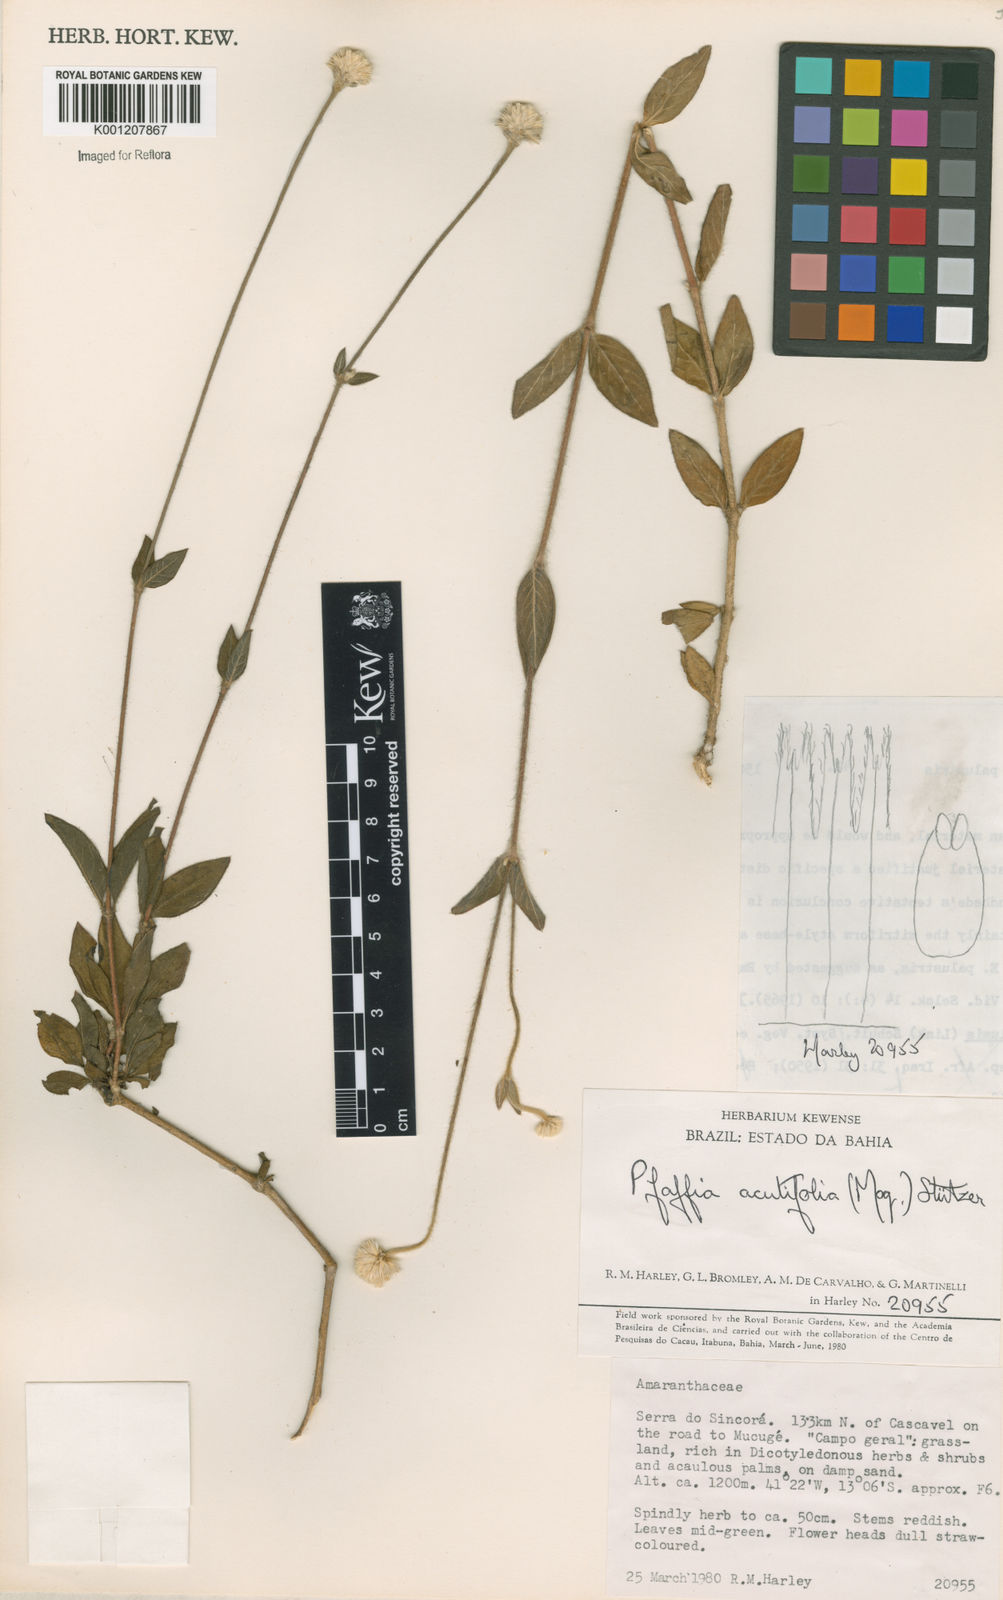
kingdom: Plantae
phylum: Tracheophyta
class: Magnoliopsida
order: Caryophyllales
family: Amaranthaceae
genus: Pfaffia
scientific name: Pfaffia
